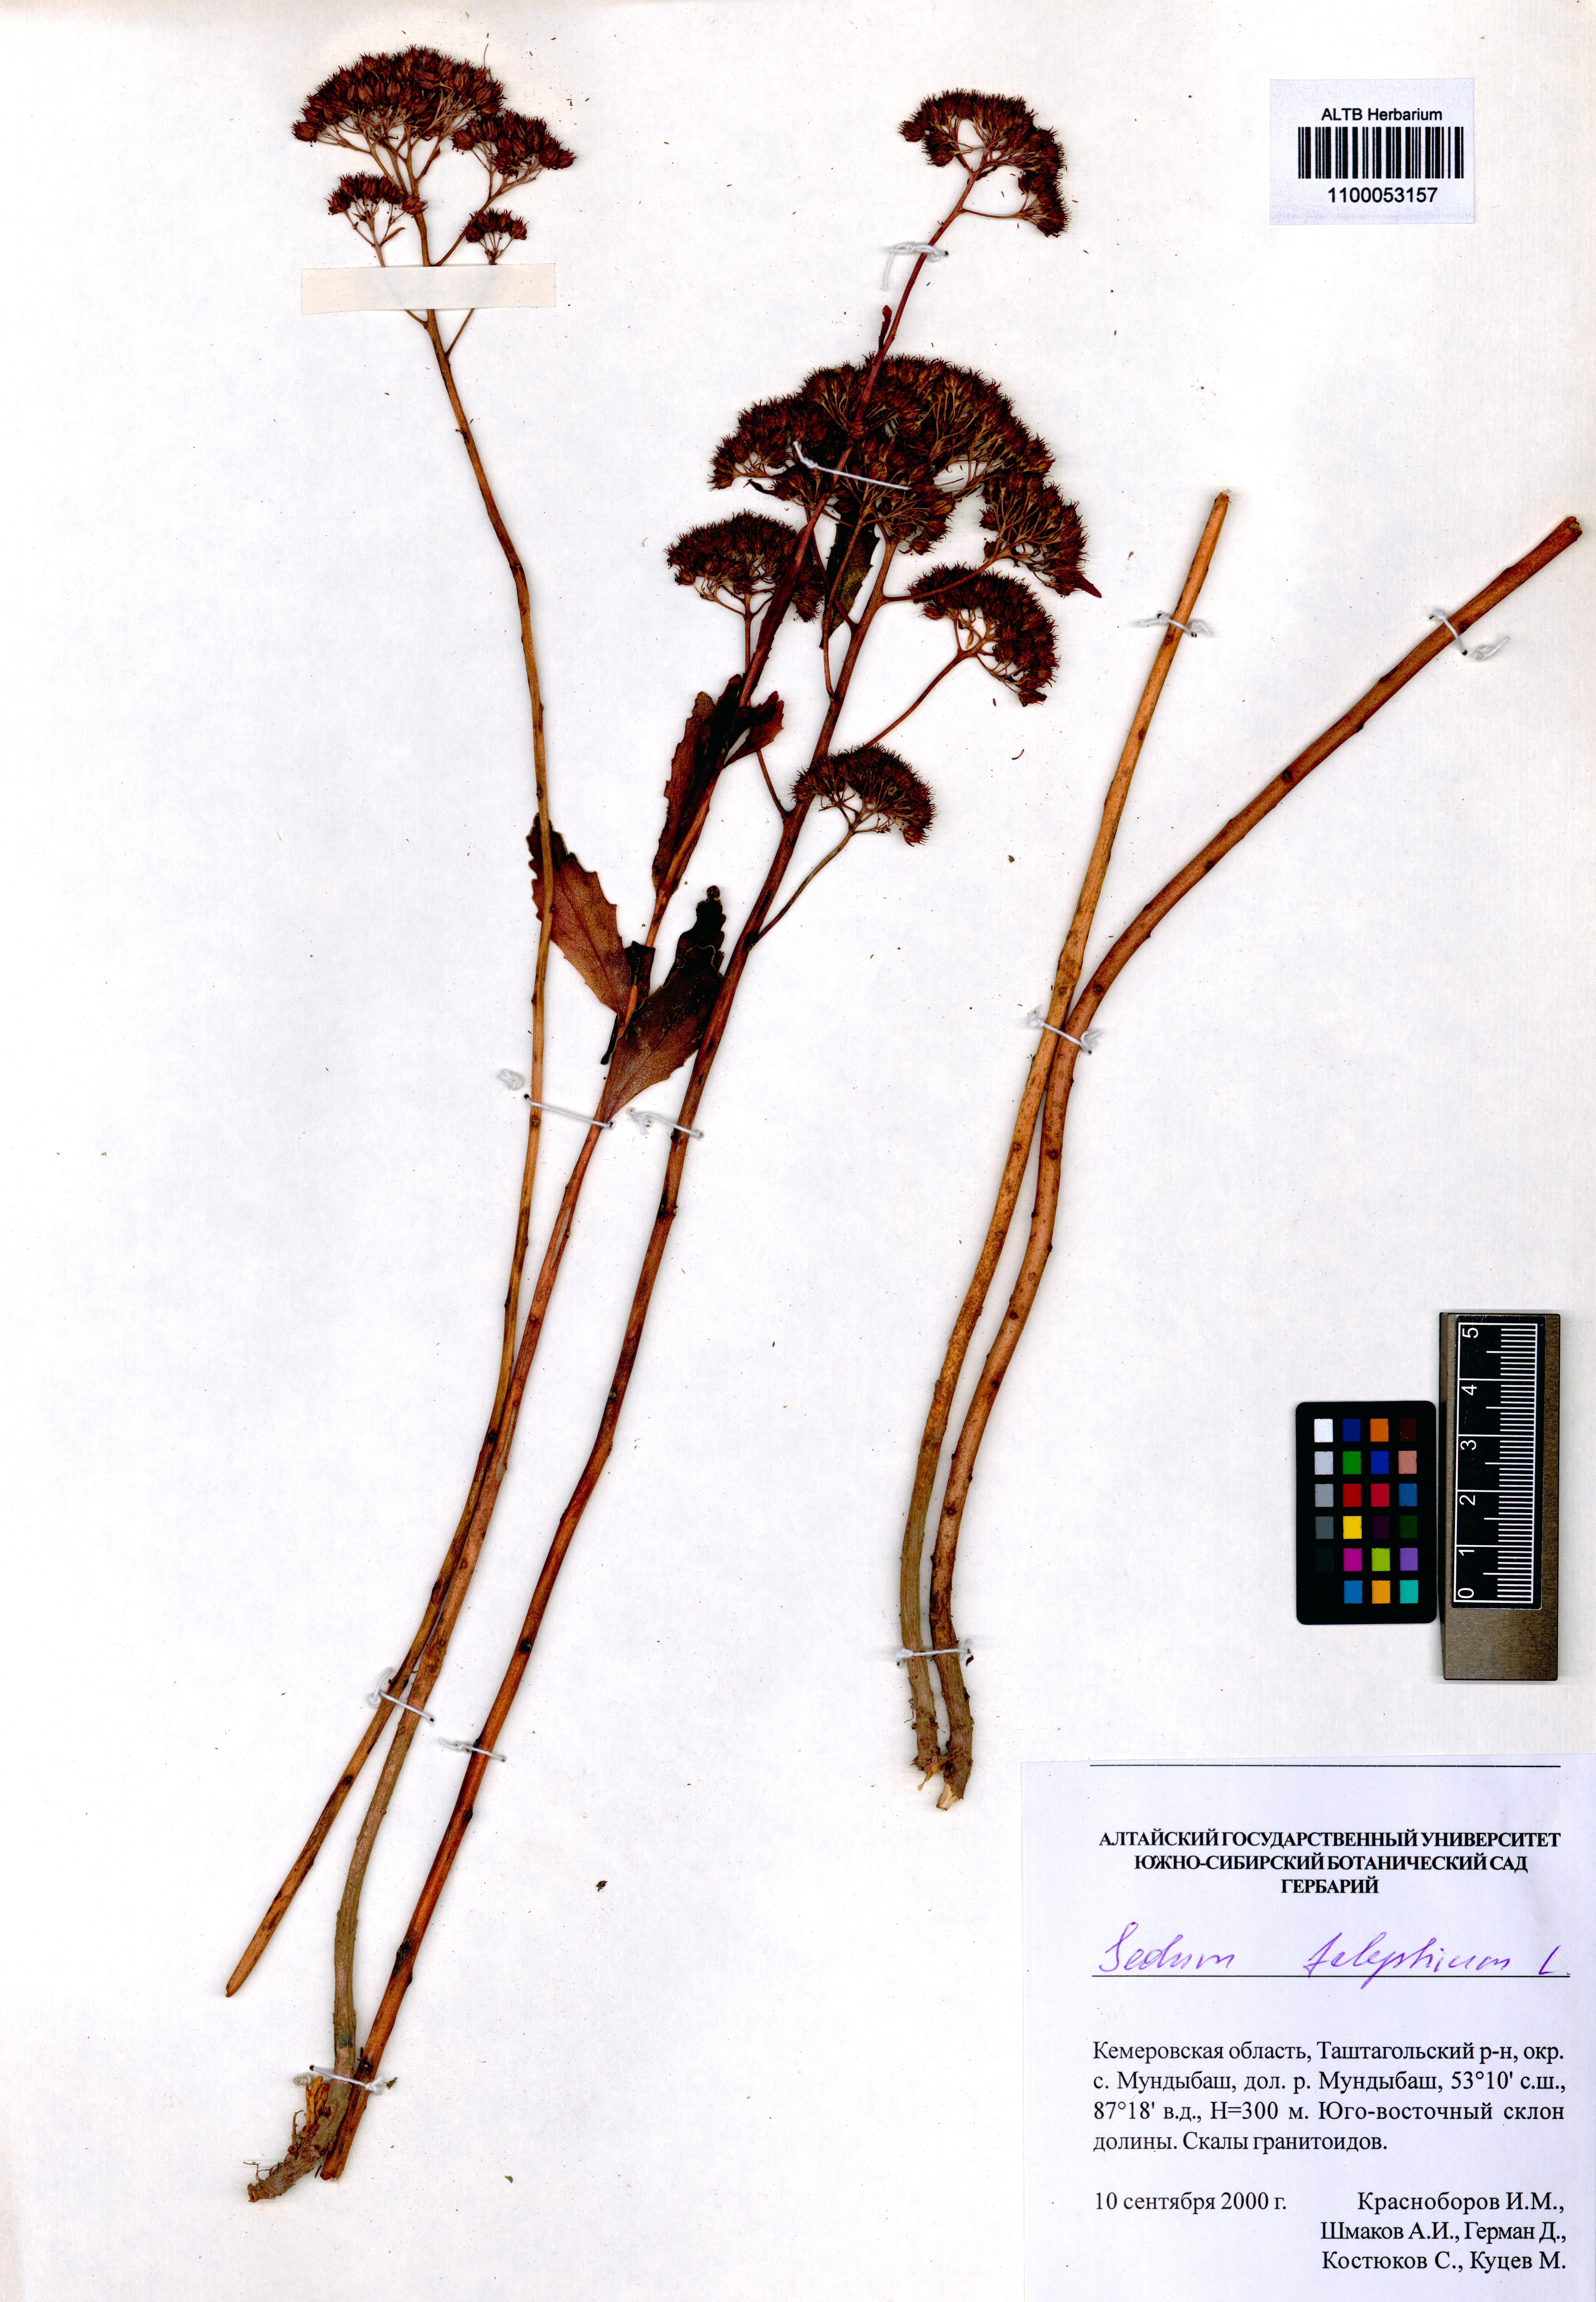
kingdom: Plantae
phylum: Tracheophyta
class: Magnoliopsida
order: Saxifragales
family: Crassulaceae
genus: Hylotelephium
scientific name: Hylotelephium telephium
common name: Live-forever
